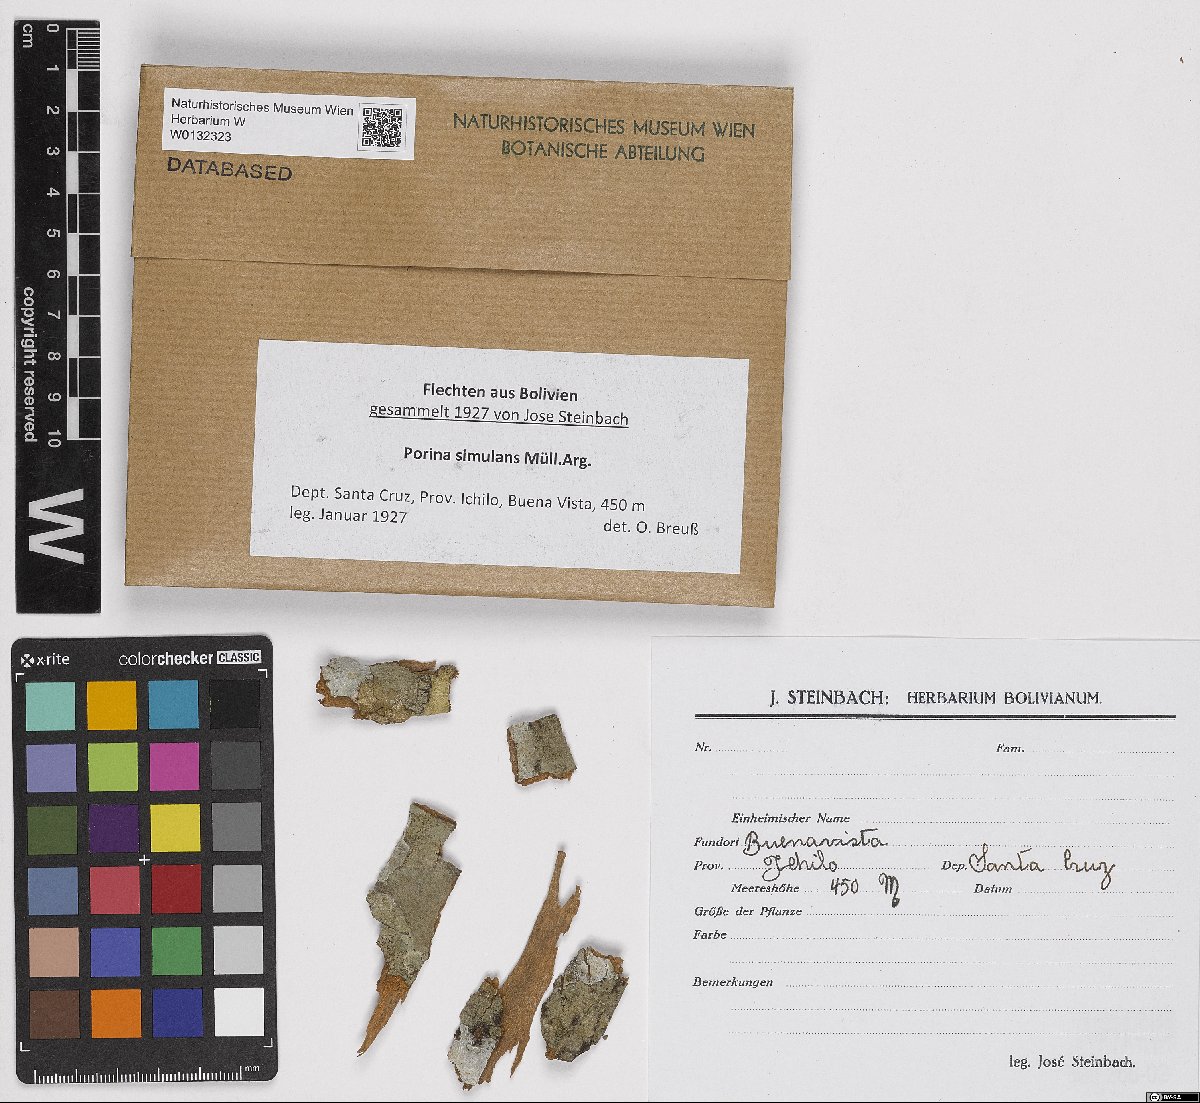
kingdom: Fungi
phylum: Ascomycota
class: Lecanoromycetes
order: Pertusariales
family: Pertusariaceae
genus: Porina
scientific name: Porina simulans
